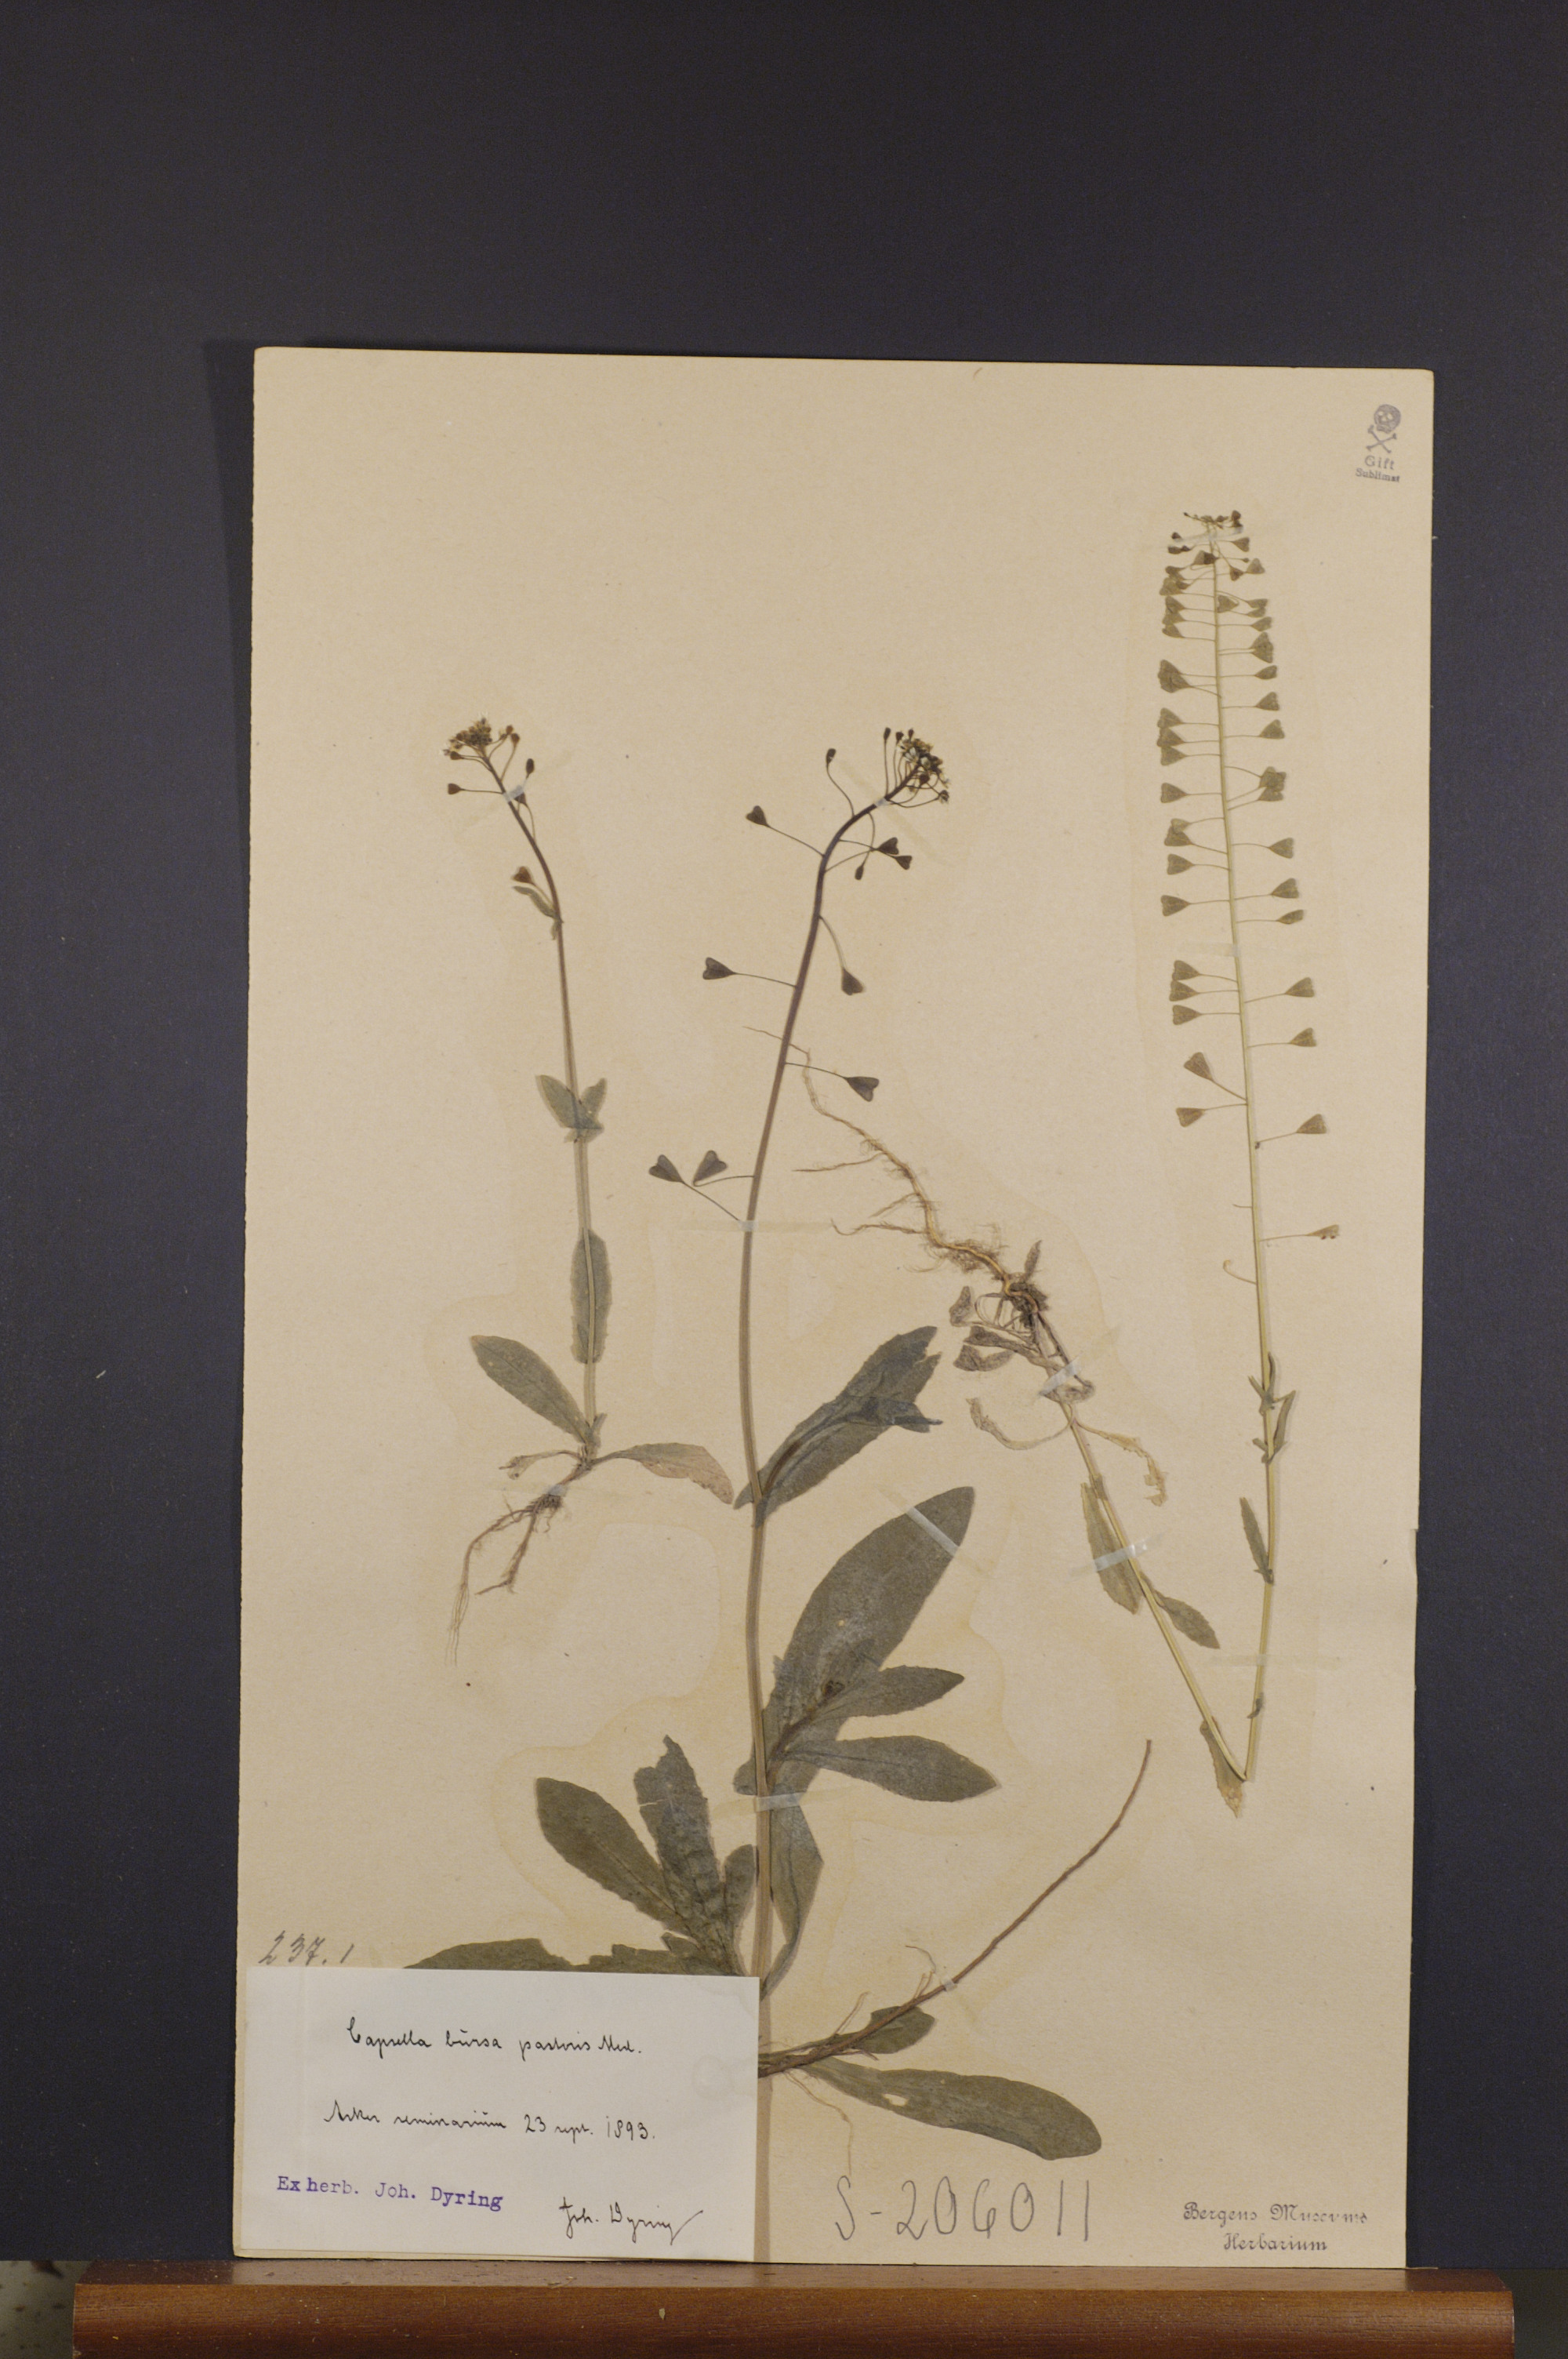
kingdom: Plantae
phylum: Tracheophyta
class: Magnoliopsida
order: Brassicales
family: Brassicaceae
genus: Capsella
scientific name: Capsella bursa-pastoris
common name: Shepherd's purse
